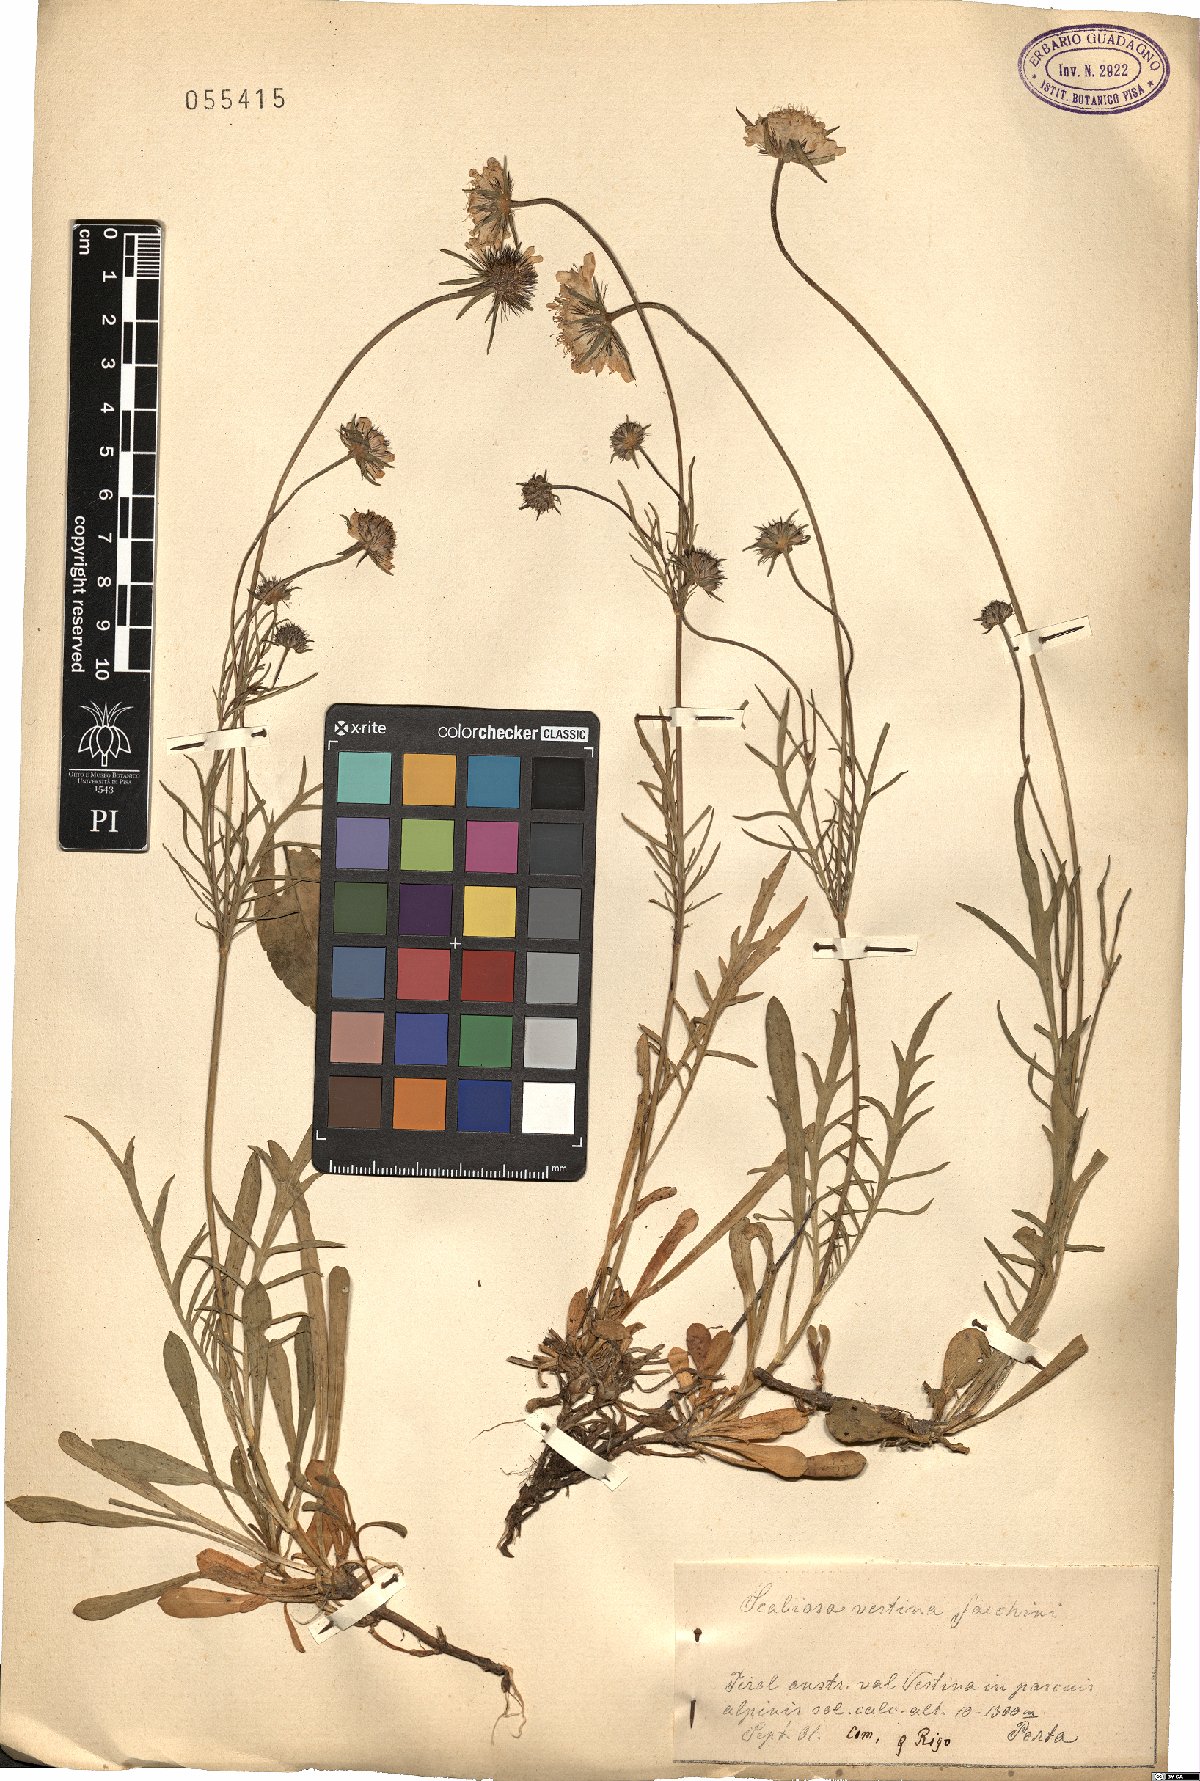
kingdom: Plantae
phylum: Tracheophyta
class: Magnoliopsida
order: Dipsacales
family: Caprifoliaceae
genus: Scabiosa
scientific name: Scabiosa vestina
